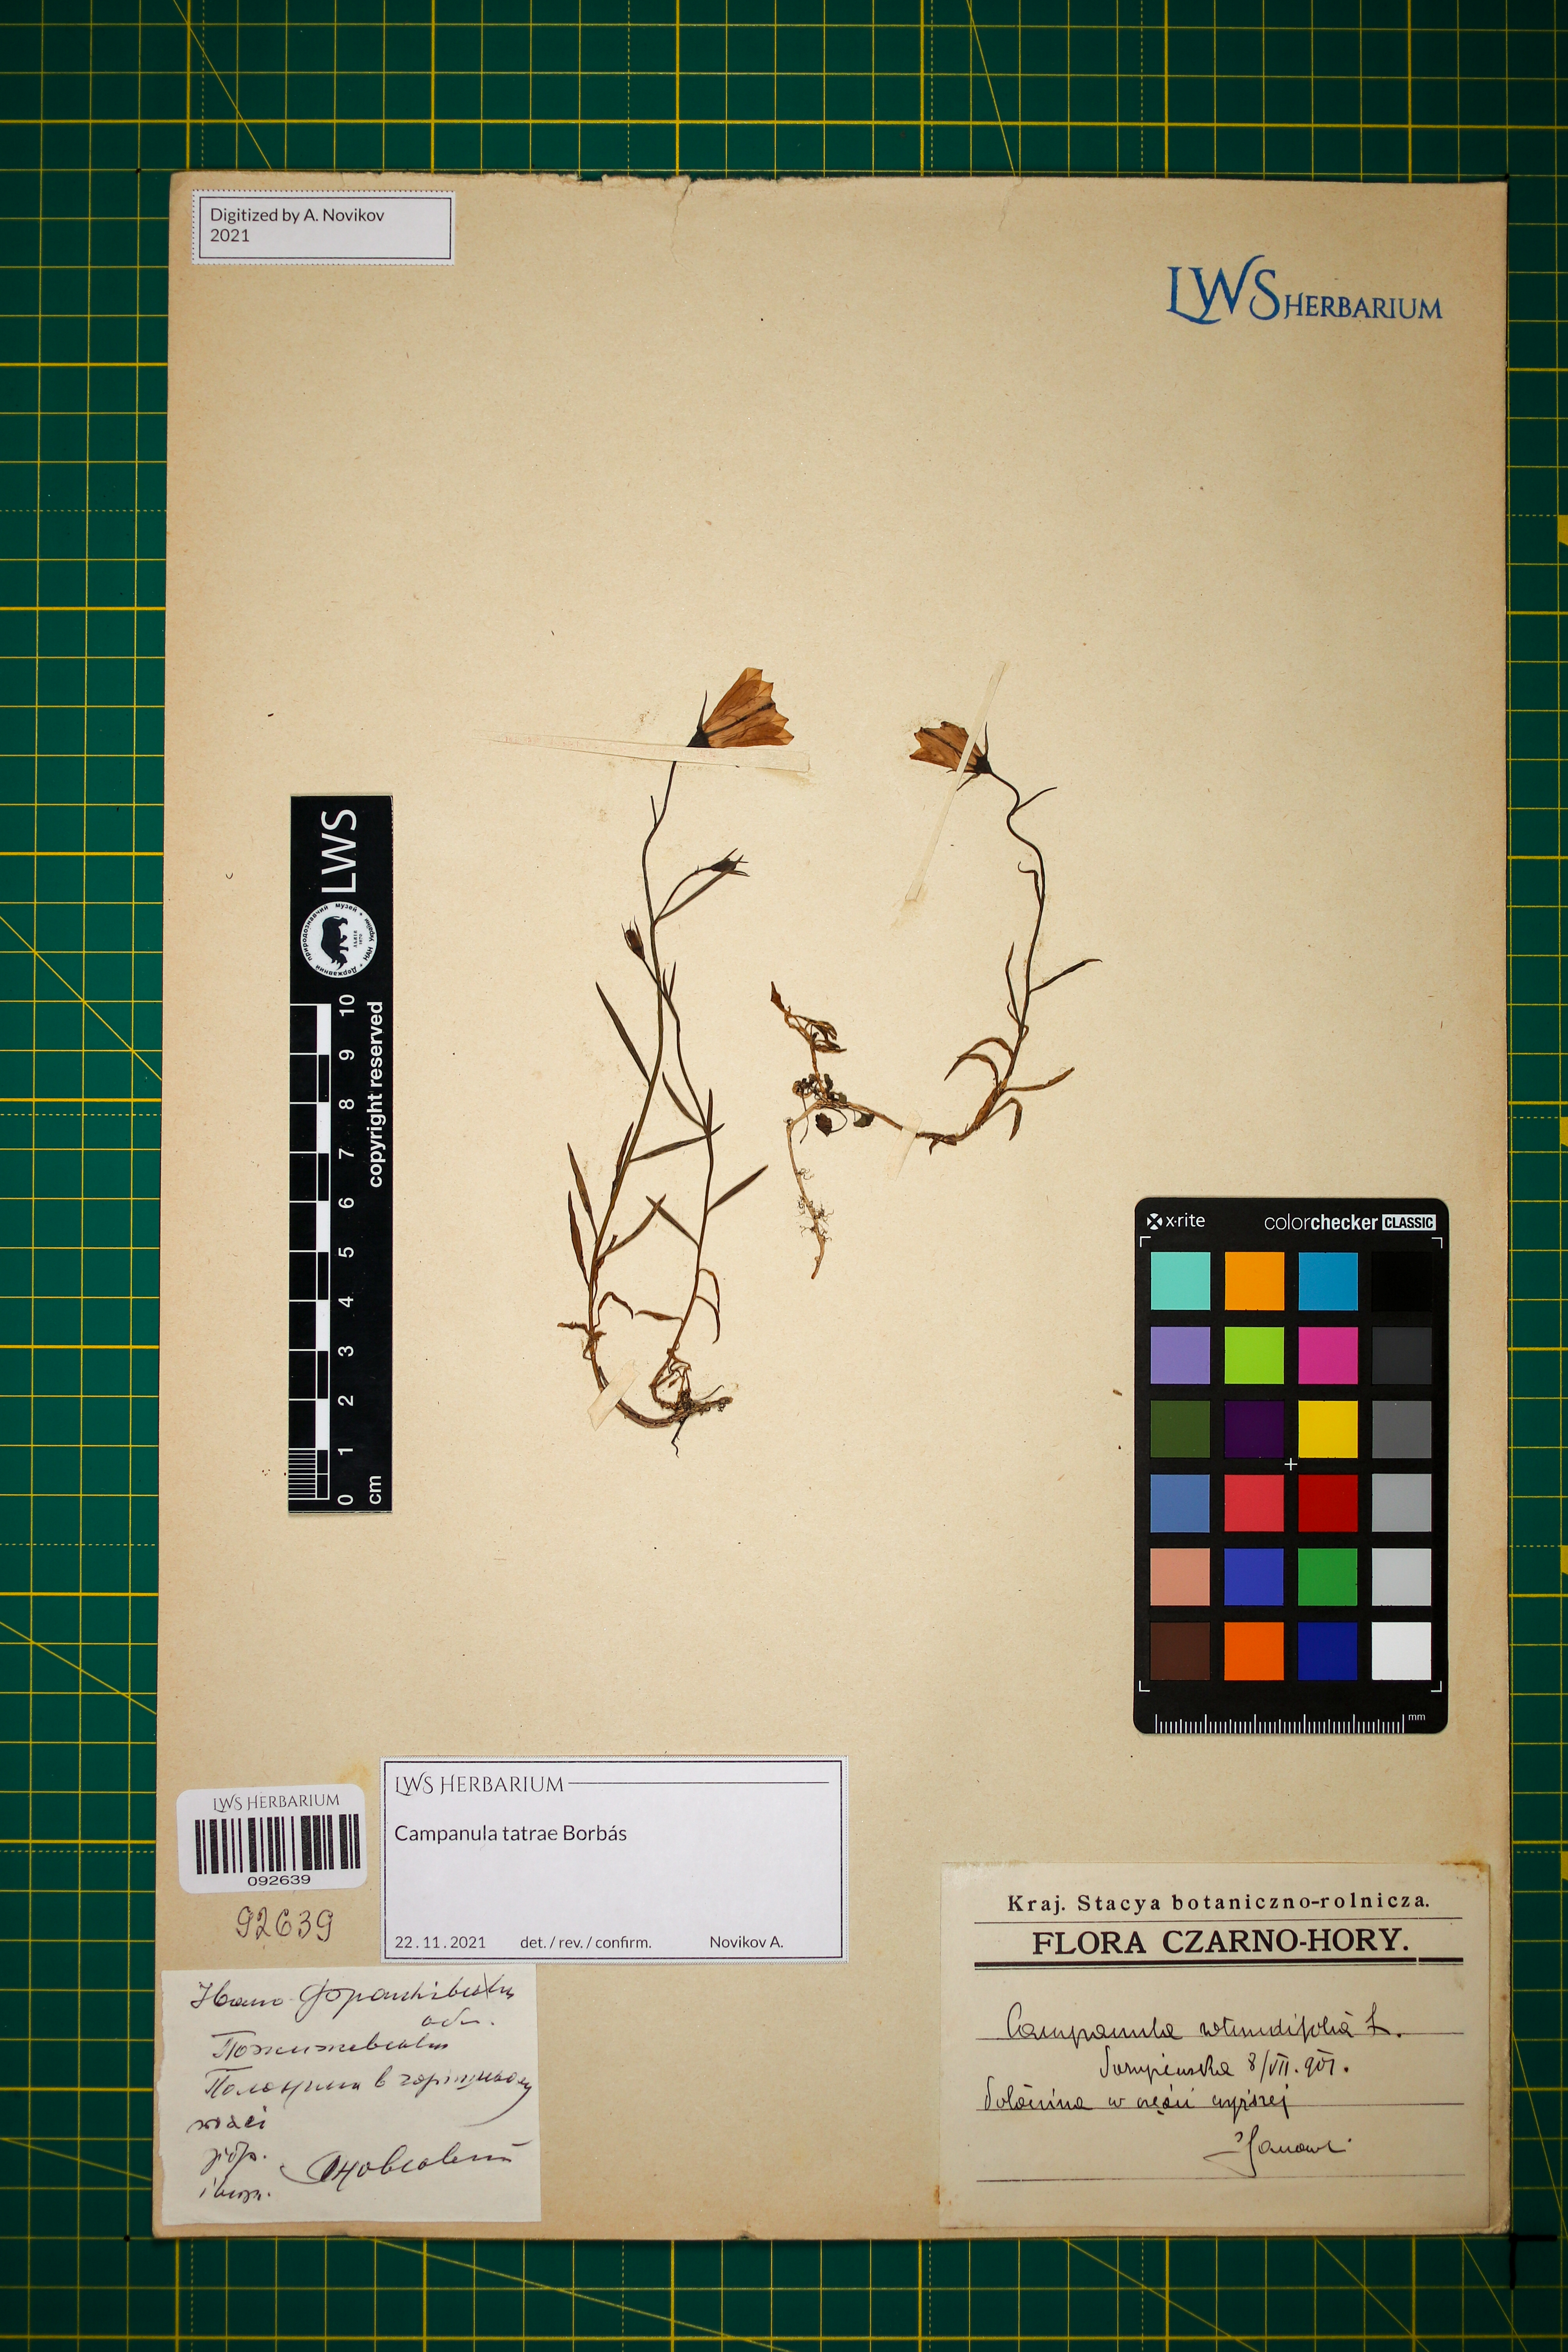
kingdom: Plantae
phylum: Tracheophyta
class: Magnoliopsida
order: Asterales
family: Campanulaceae
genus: Campanula
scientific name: Campanula tatrae
